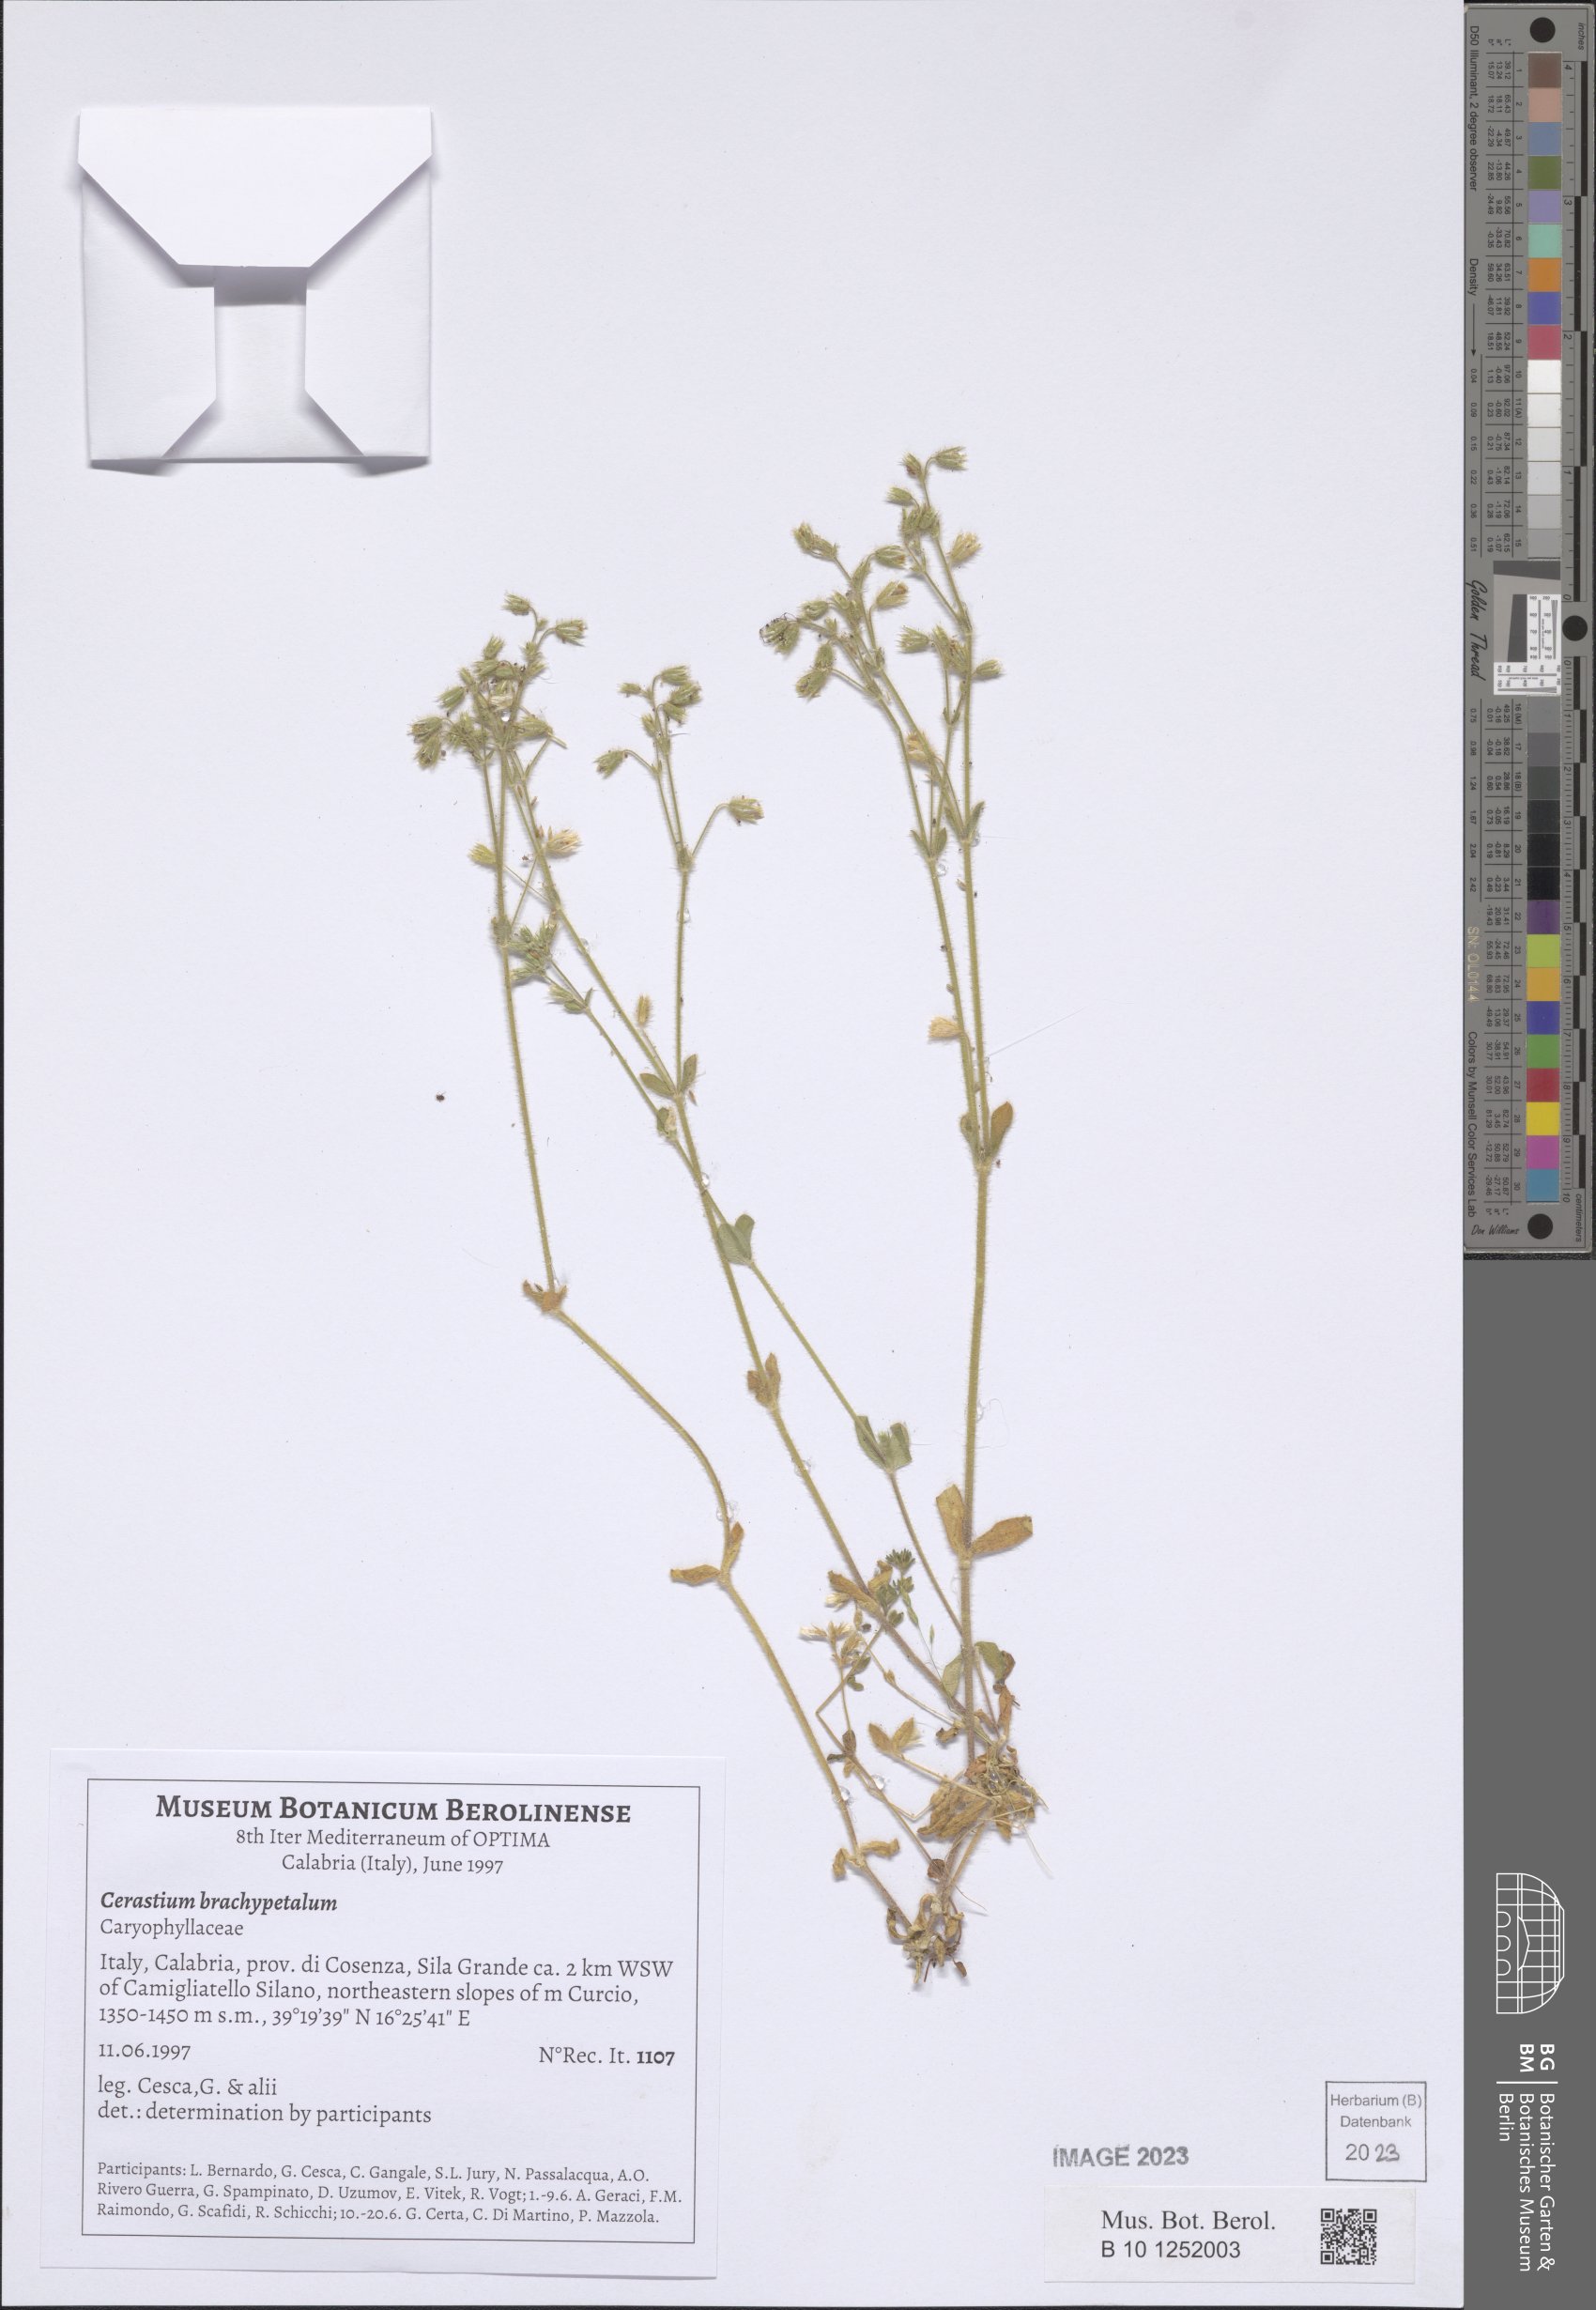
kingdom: Plantae
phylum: Tracheophyta
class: Magnoliopsida
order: Caryophyllales
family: Caryophyllaceae
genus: Cerastium
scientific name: Cerastium brachypetalum
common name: Grey mouse-ear
